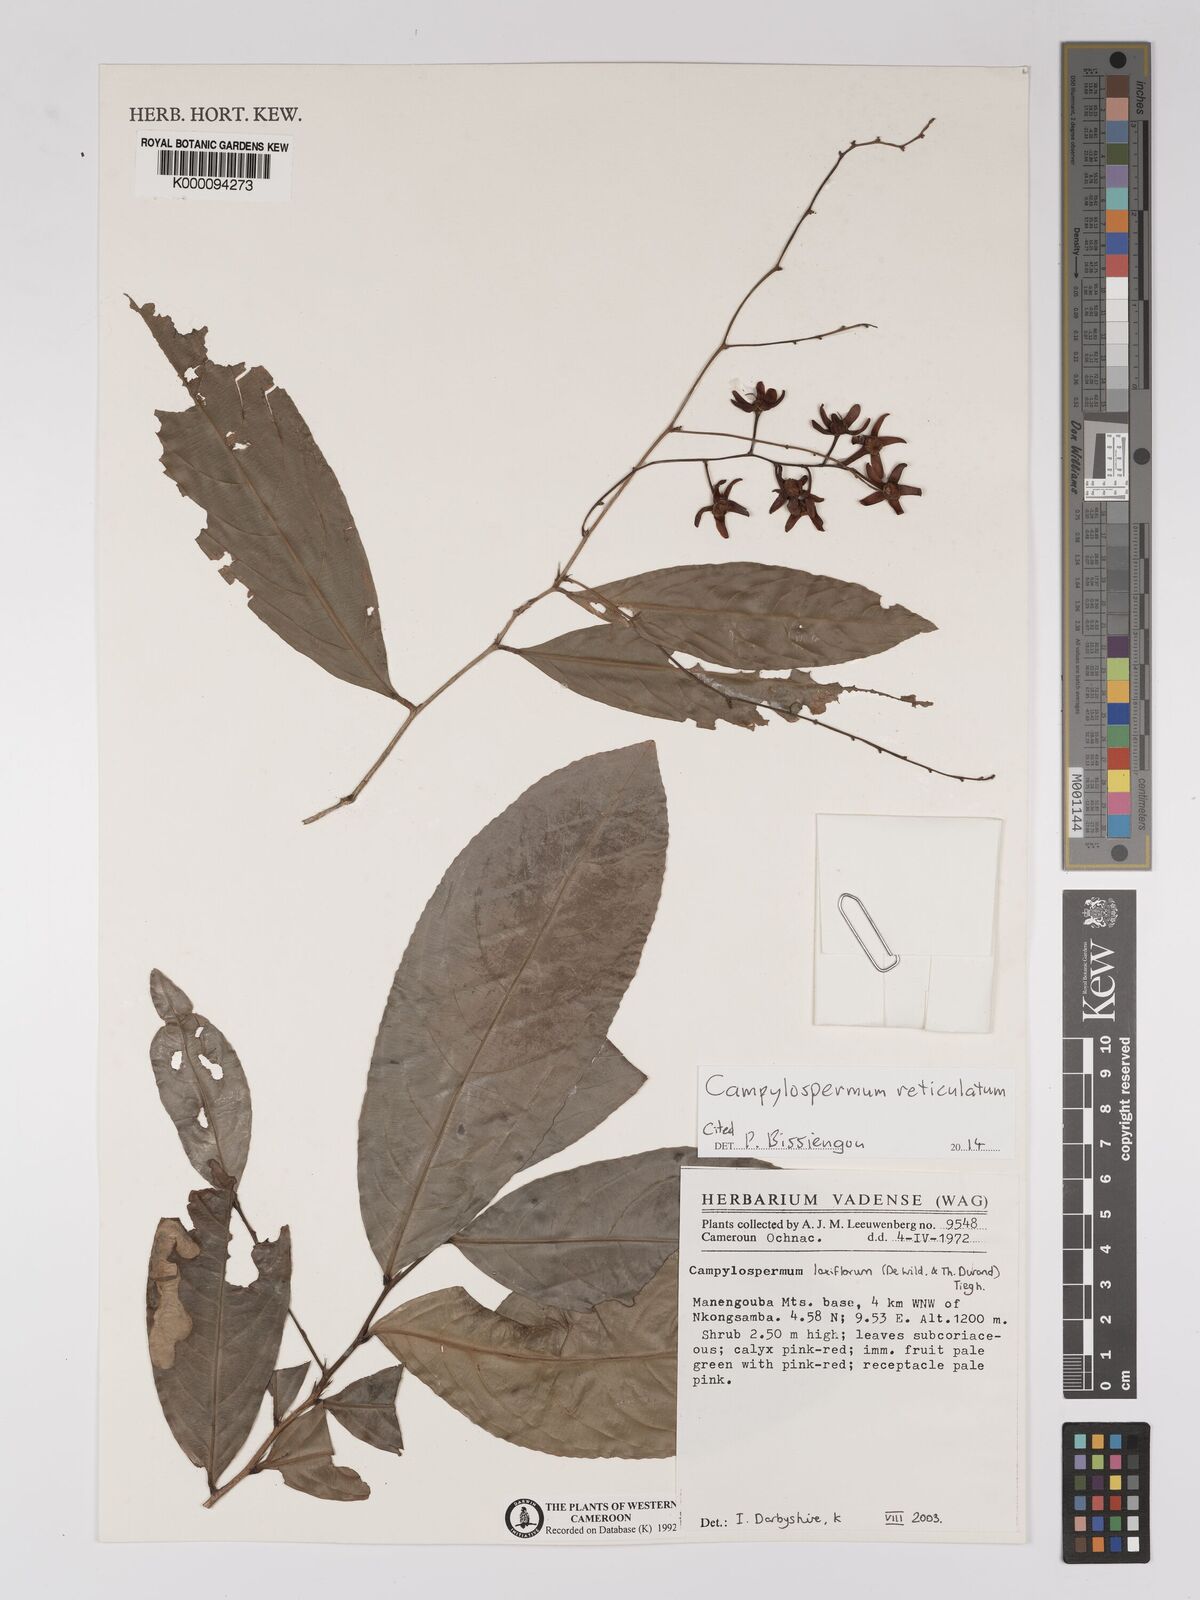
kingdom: Plantae
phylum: Tracheophyta
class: Magnoliopsida
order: Malpighiales
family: Ochnaceae
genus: Campylospermum
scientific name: Campylospermum laxiflorum
